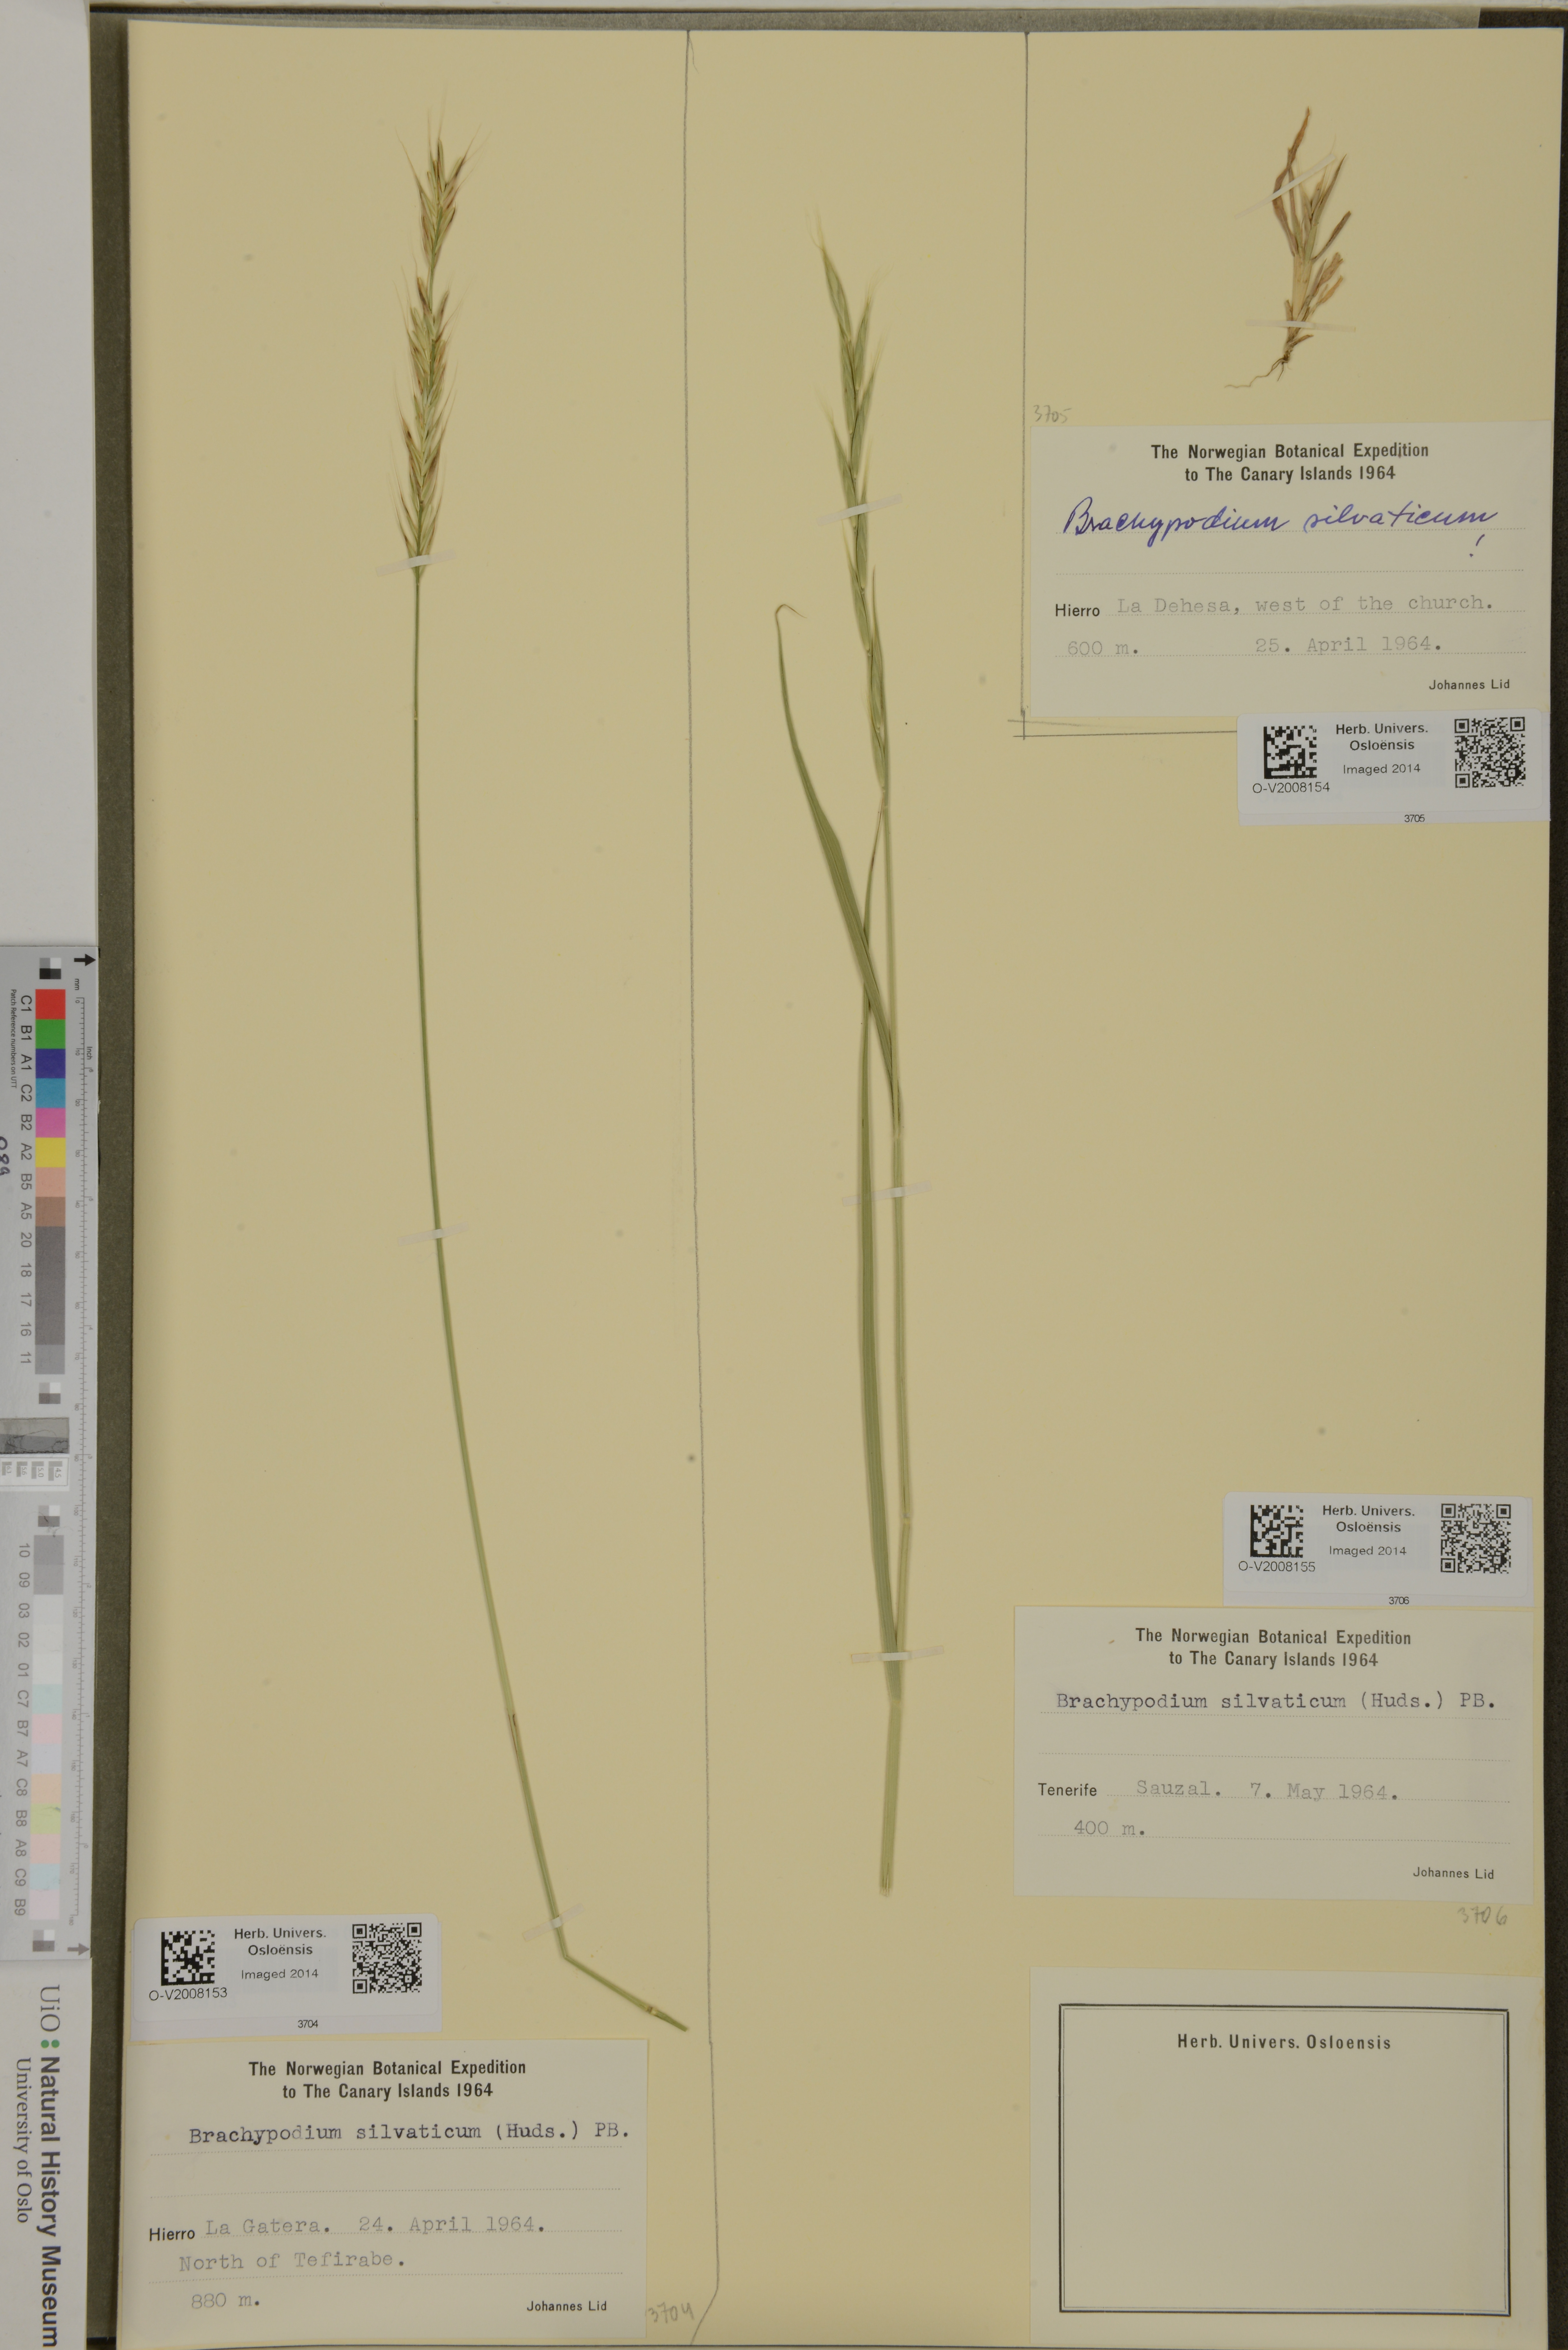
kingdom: Plantae
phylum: Tracheophyta
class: Liliopsida
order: Poales
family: Poaceae
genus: Brachypodium
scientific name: Brachypodium sylvaticum
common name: False-brome
